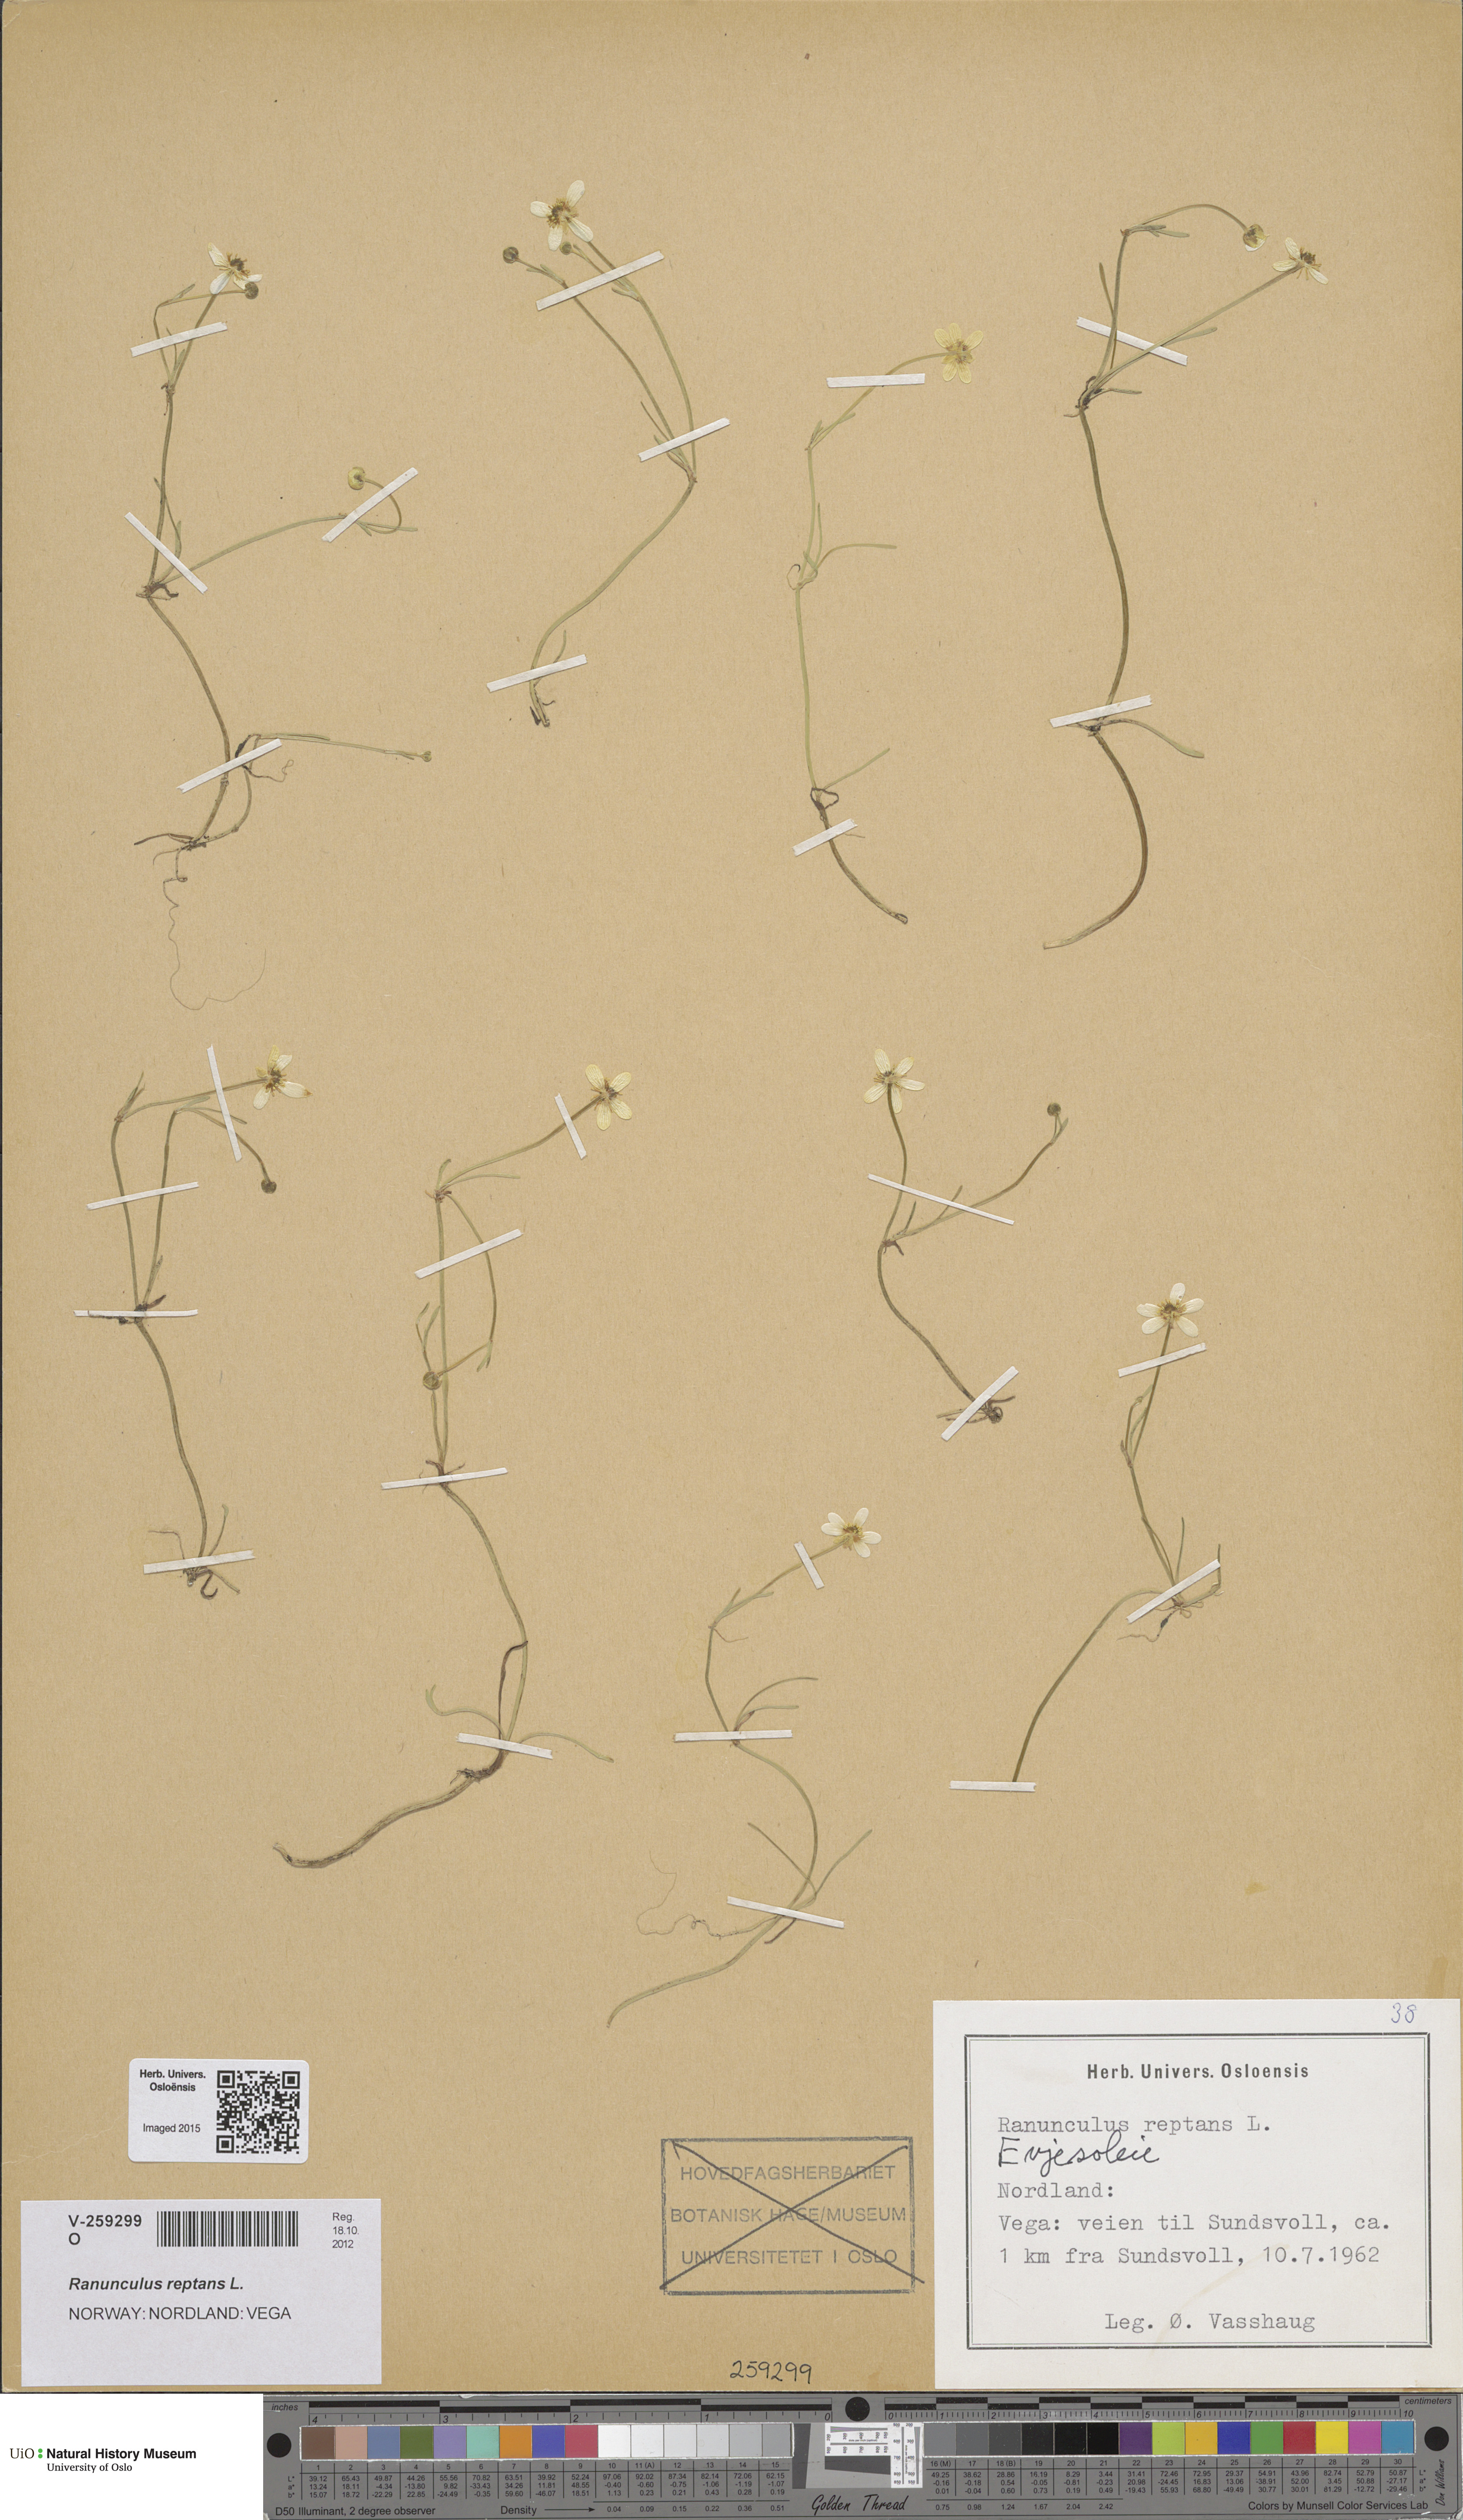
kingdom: Plantae
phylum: Tracheophyta
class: Magnoliopsida
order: Ranunculales
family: Ranunculaceae
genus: Ranunculus
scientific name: Ranunculus reptans
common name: Creeping spearwort
